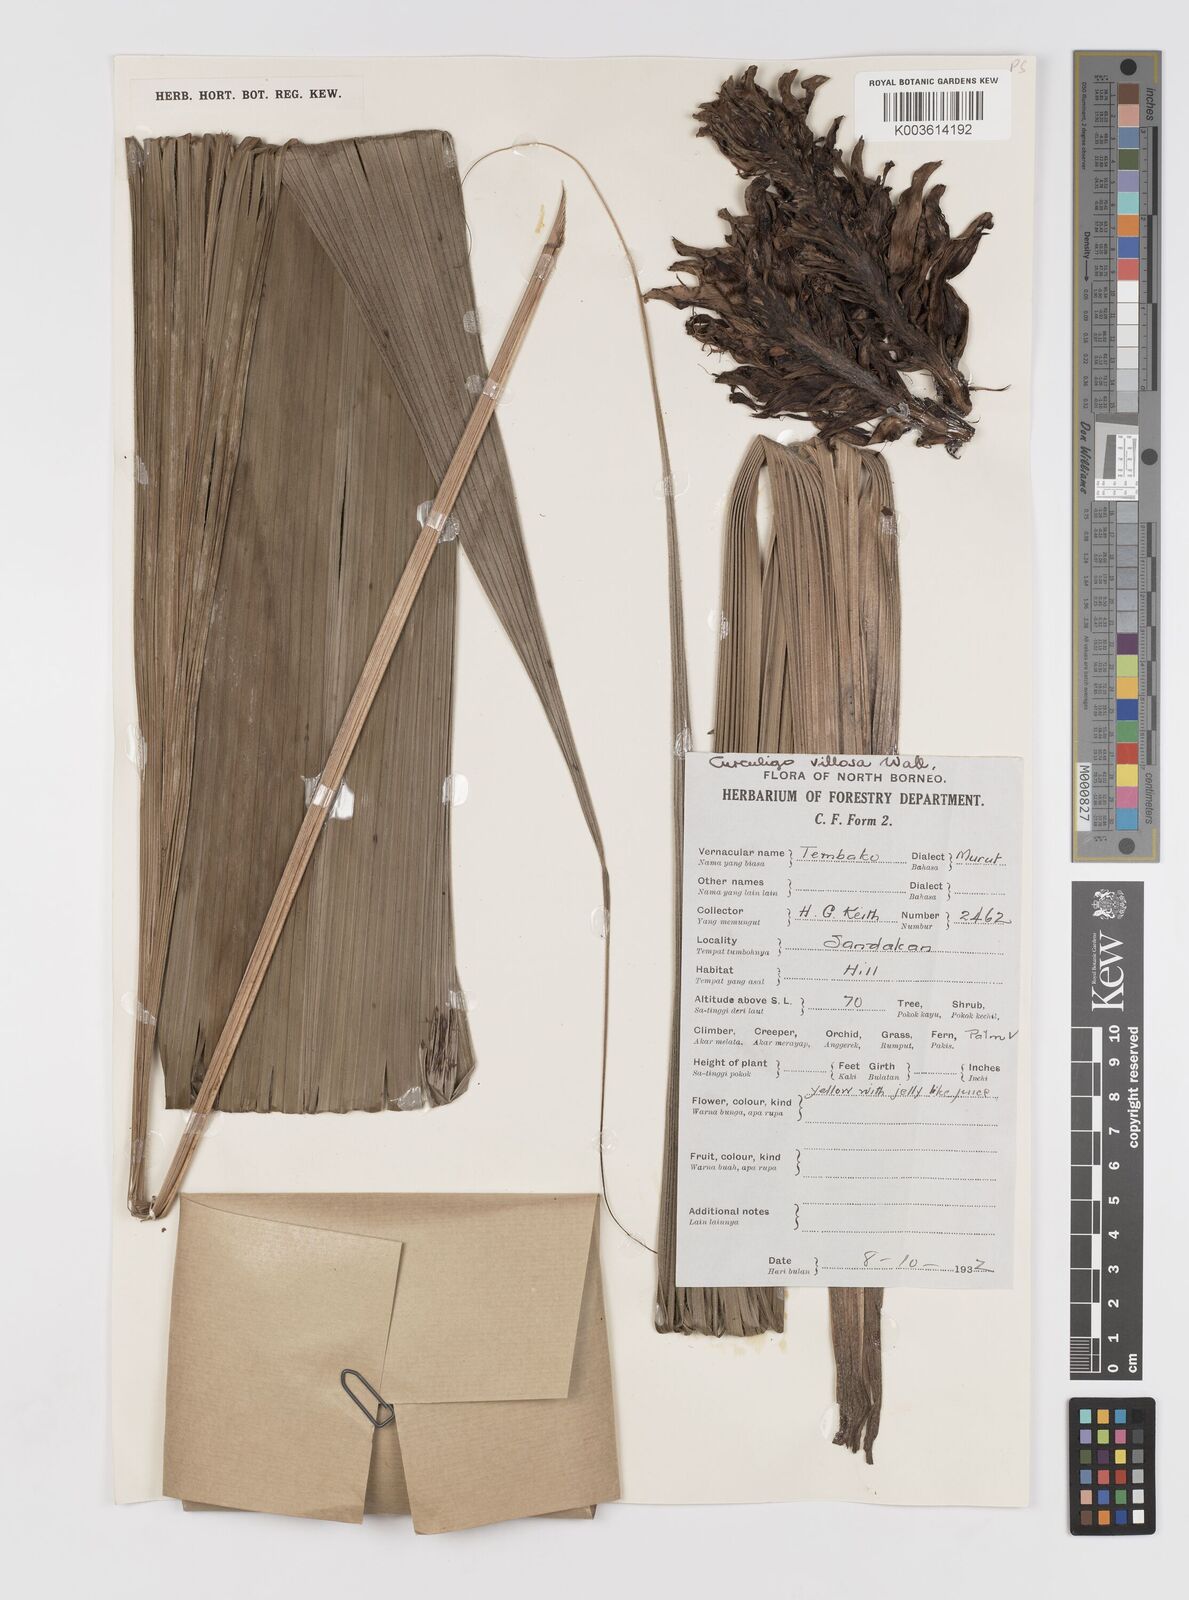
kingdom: Plantae
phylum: Tracheophyta
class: Liliopsida
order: Asparagales
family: Hypoxidaceae
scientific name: Hypoxidaceae
